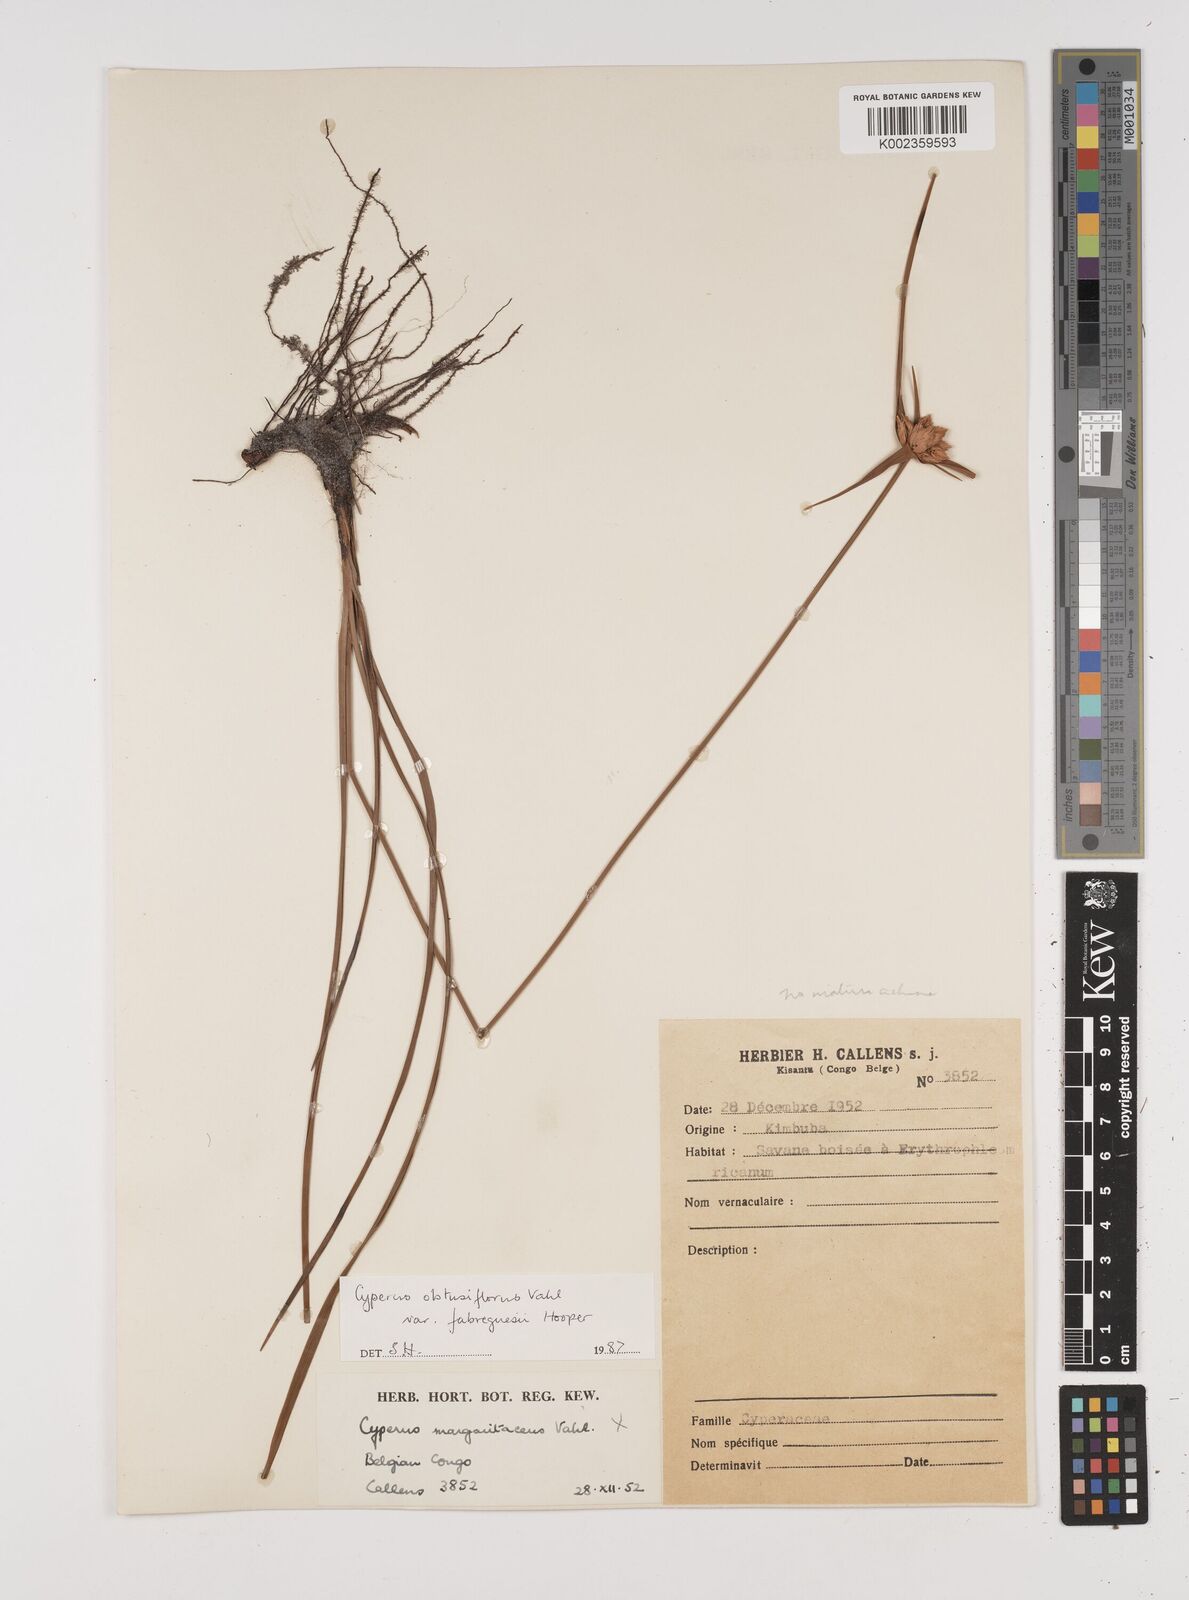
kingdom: Plantae
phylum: Tracheophyta
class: Liliopsida
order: Poales
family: Cyperaceae
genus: Cyperus
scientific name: Cyperus niveus
